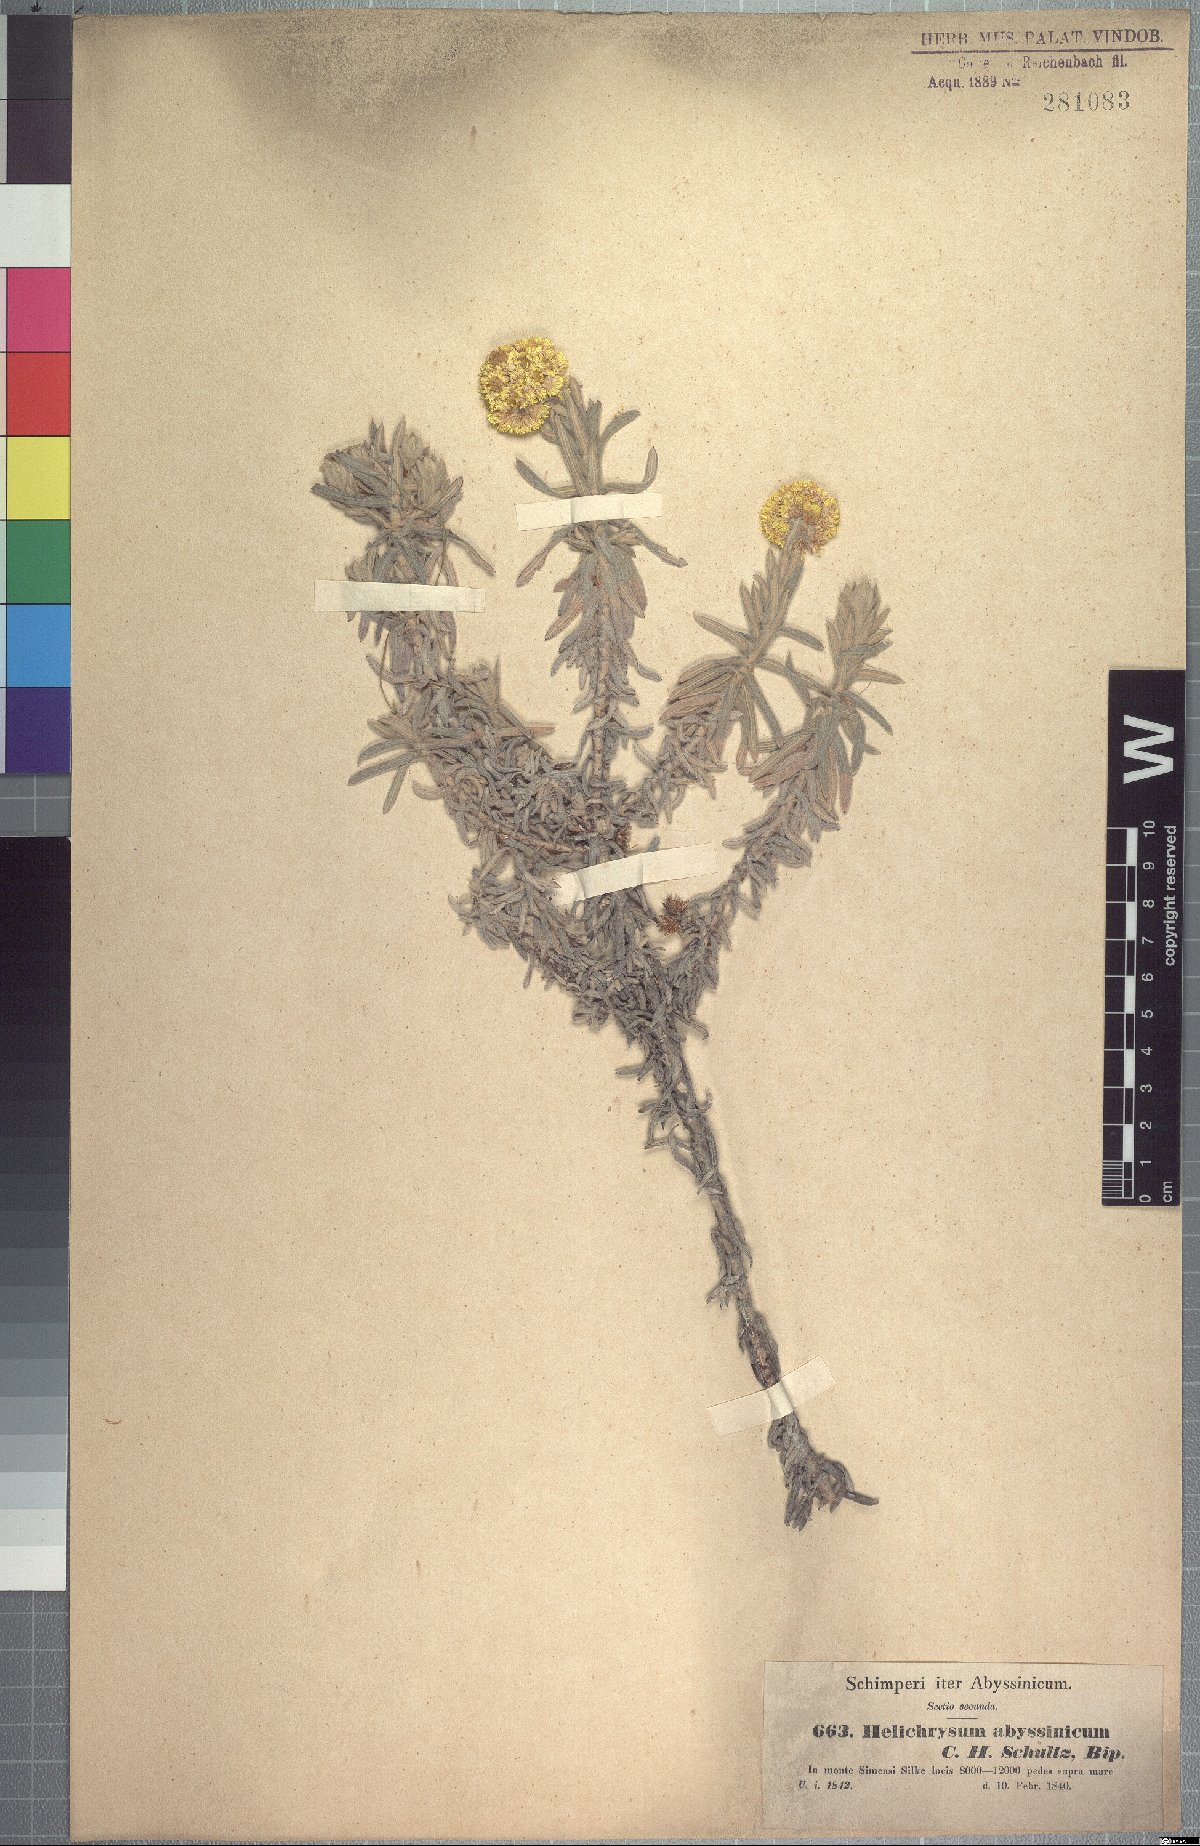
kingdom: Plantae
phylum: Tracheophyta
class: Magnoliopsida
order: Asterales
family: Asteraceae
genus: Helichrysum
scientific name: Helichrysum splendidum
